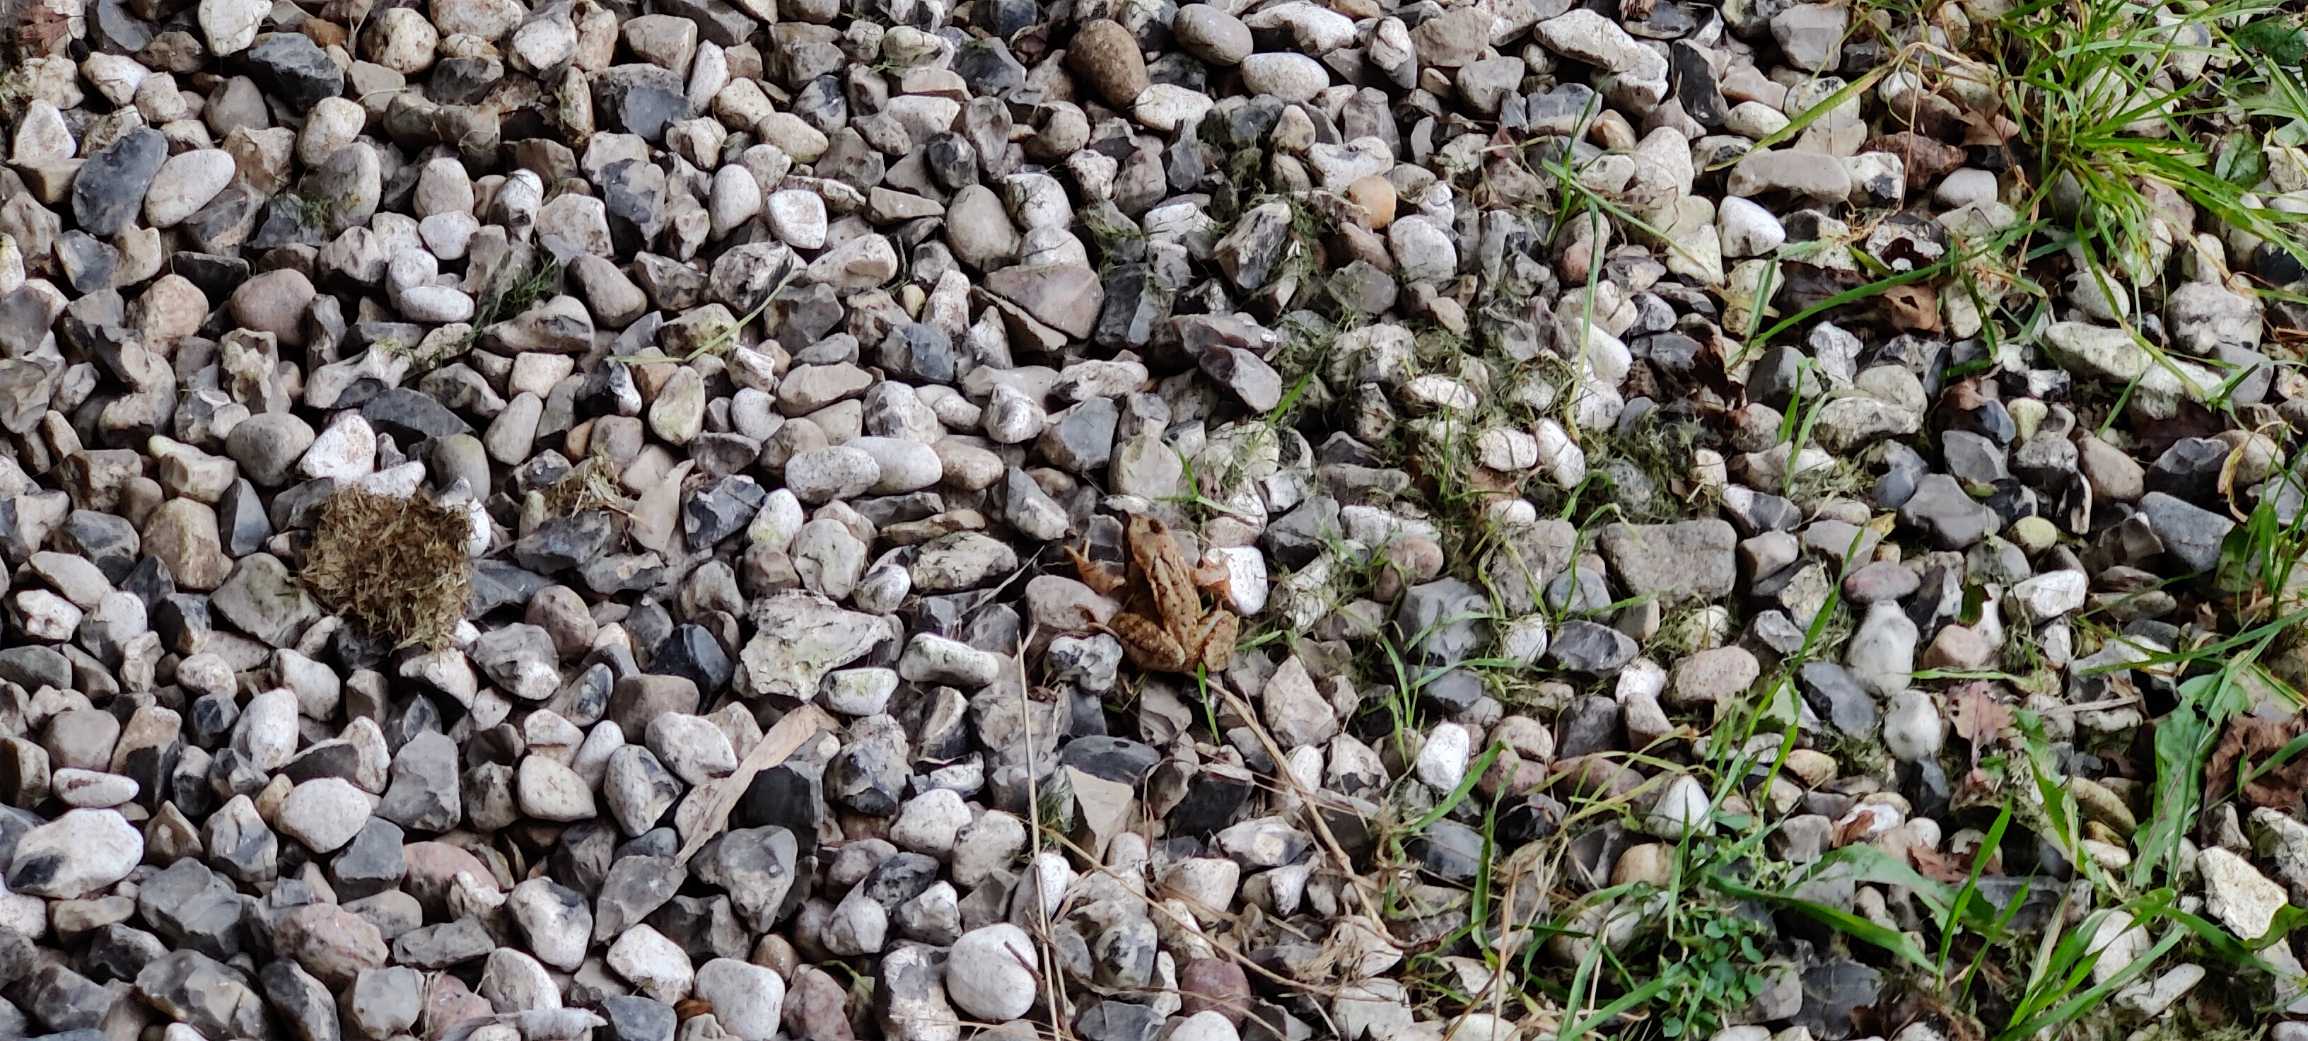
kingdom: Animalia
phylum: Chordata
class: Amphibia
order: Anura
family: Ranidae
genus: Rana
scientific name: Rana temporaria
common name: Butsnudet frø
